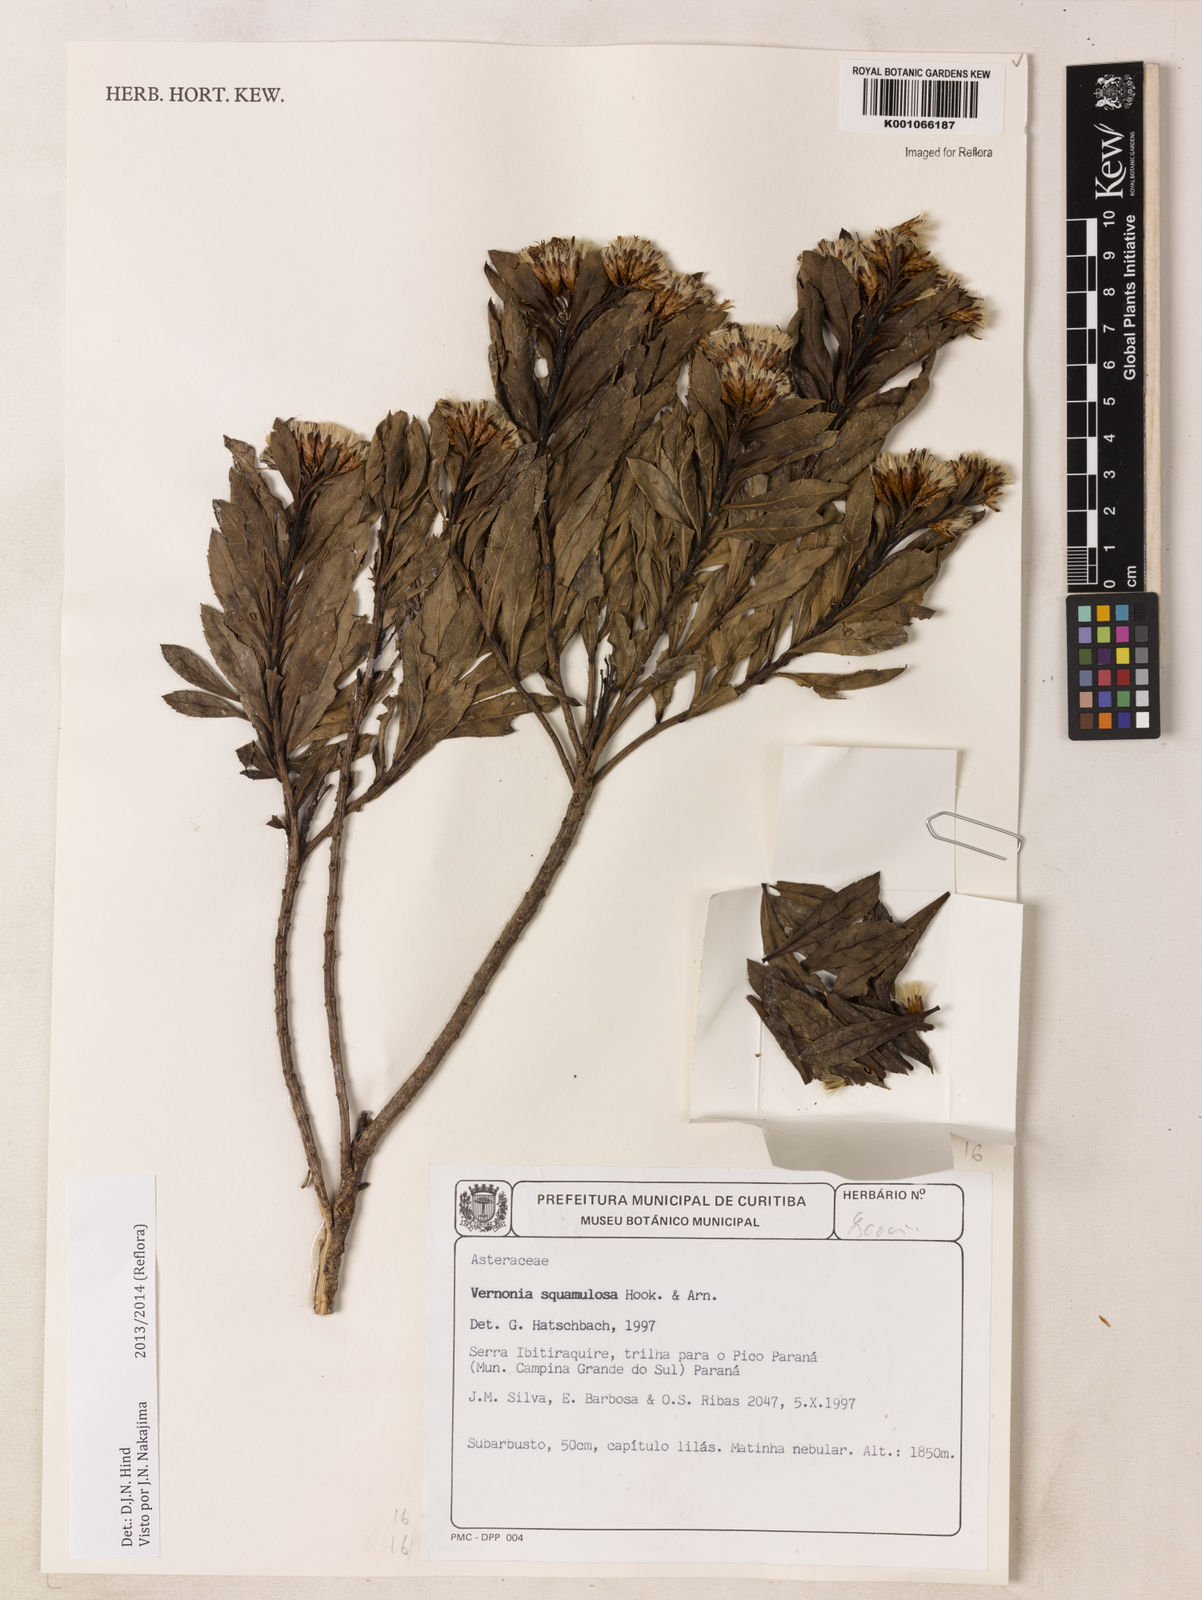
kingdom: Plantae
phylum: Tracheophyta
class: Magnoliopsida
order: Asterales
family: Asteraceae
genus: Lessingianthus
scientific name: Lessingianthus plantaginoides
